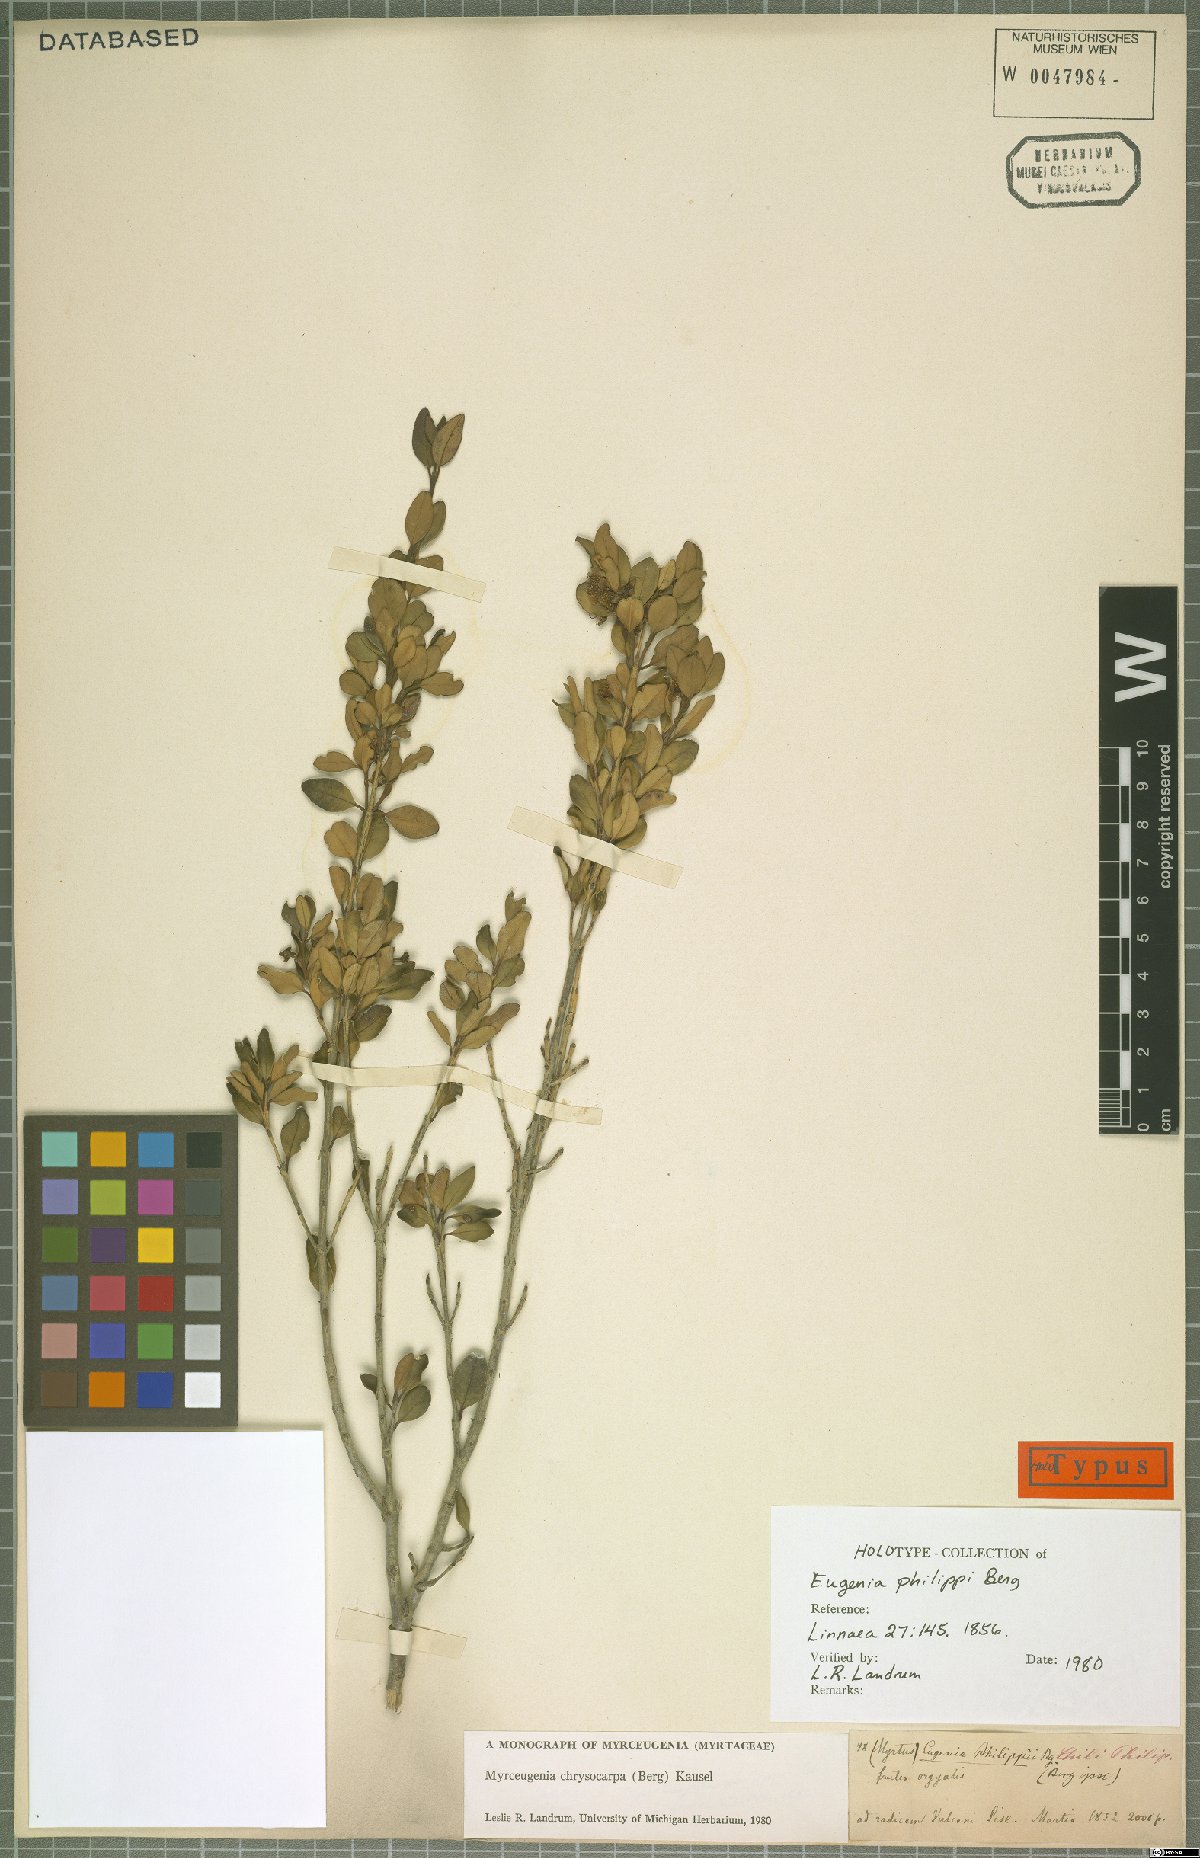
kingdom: Plantae
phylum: Tracheophyta
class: Magnoliopsida
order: Myrtales
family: Myrtaceae
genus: Myrceugenia
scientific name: Myrceugenia chrysocarpa
